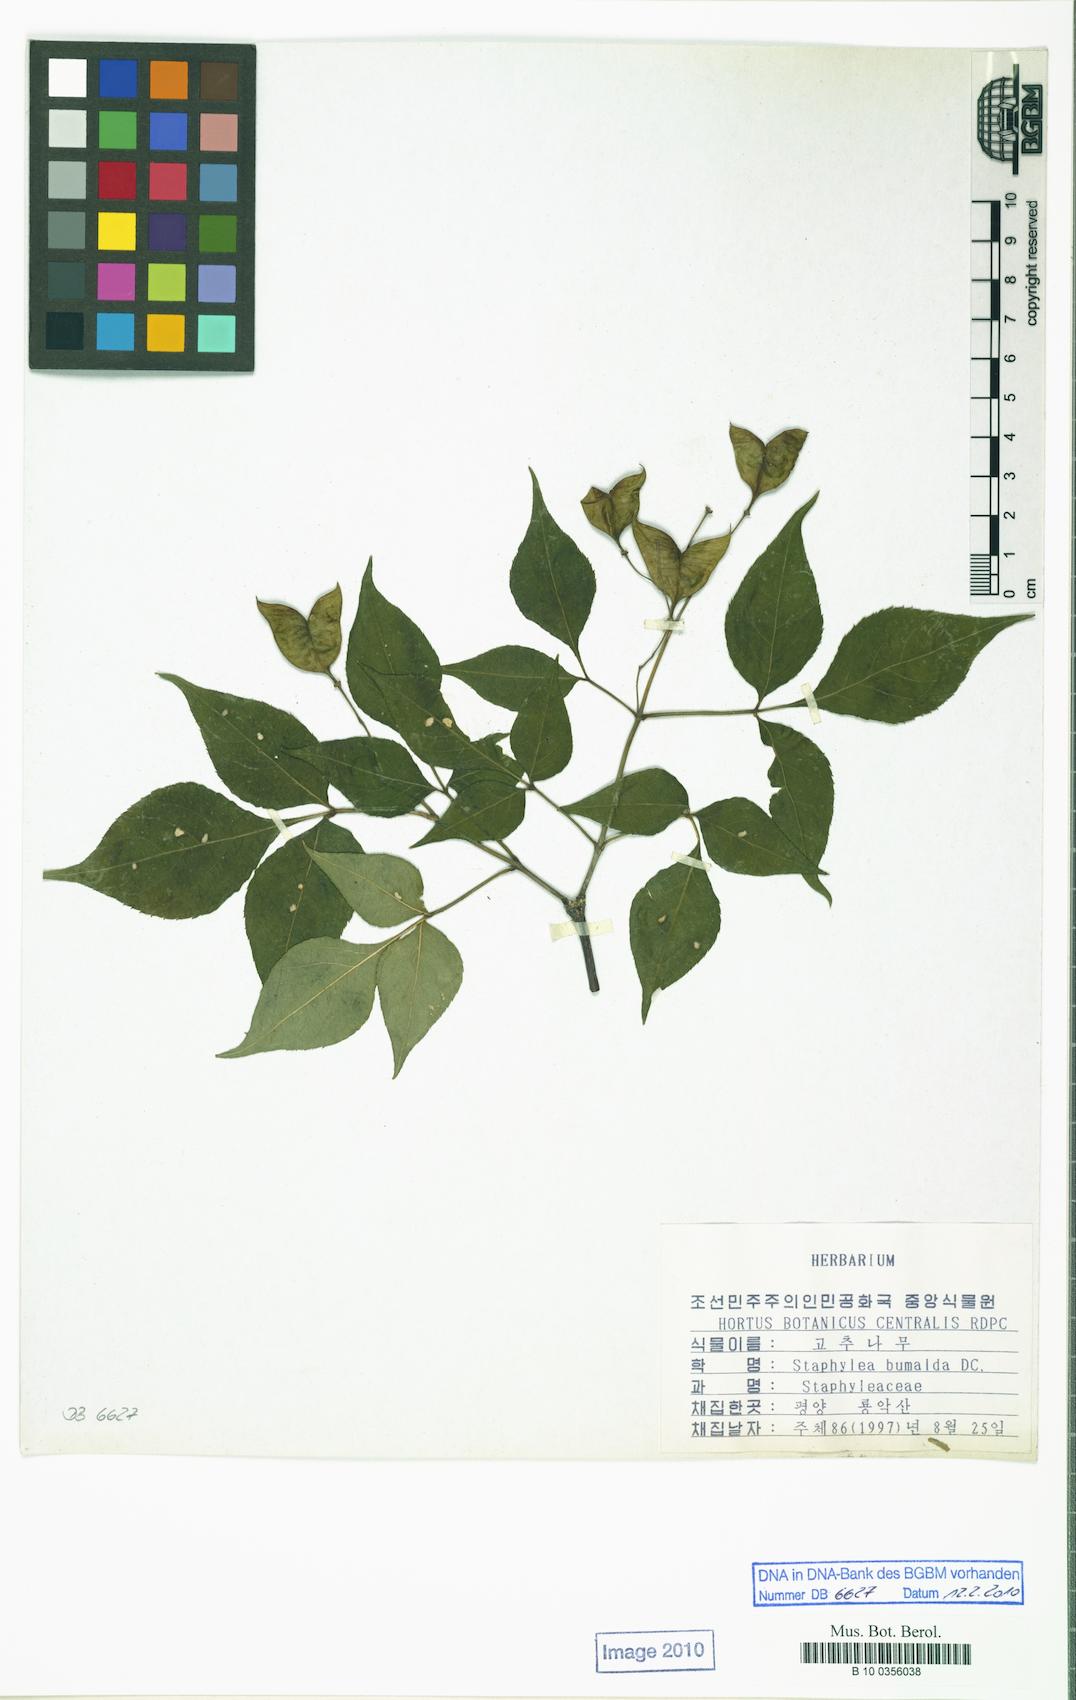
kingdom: Plantae
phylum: Tracheophyta
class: Magnoliopsida
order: Crossosomatales
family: Staphyleaceae
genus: Staphylea
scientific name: Staphylea bumalda
